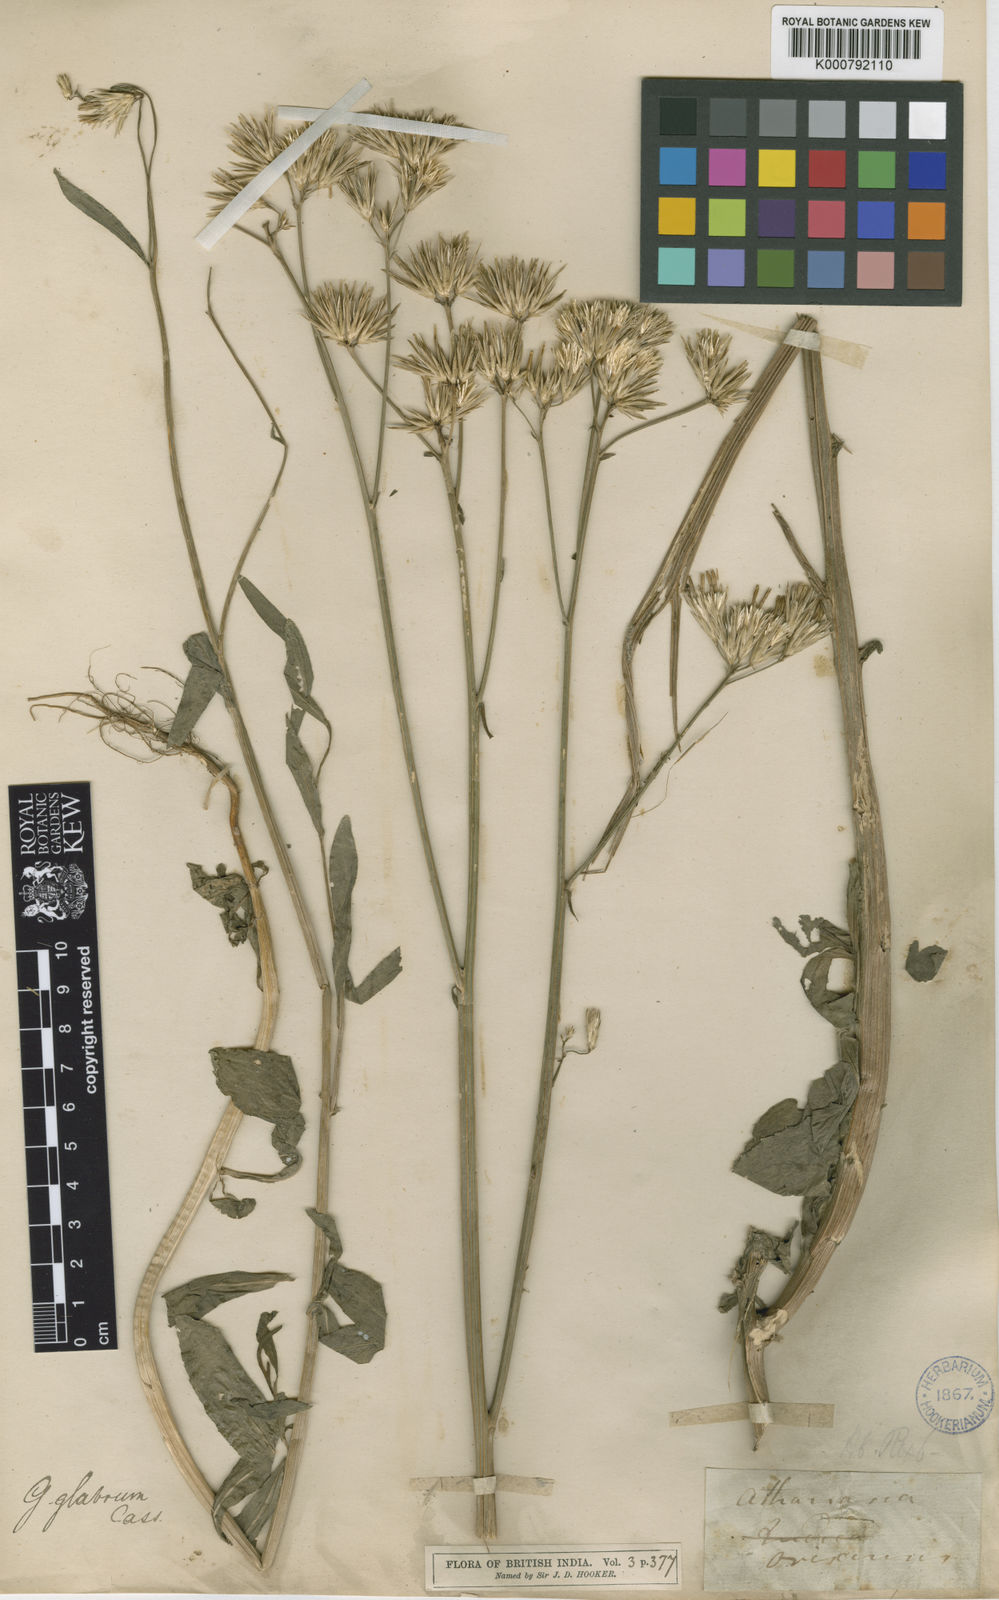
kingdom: Plantae
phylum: Tracheophyta
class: Magnoliopsida
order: Asterales
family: Asteraceae
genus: Goniocaulon
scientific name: Goniocaulon indicum
